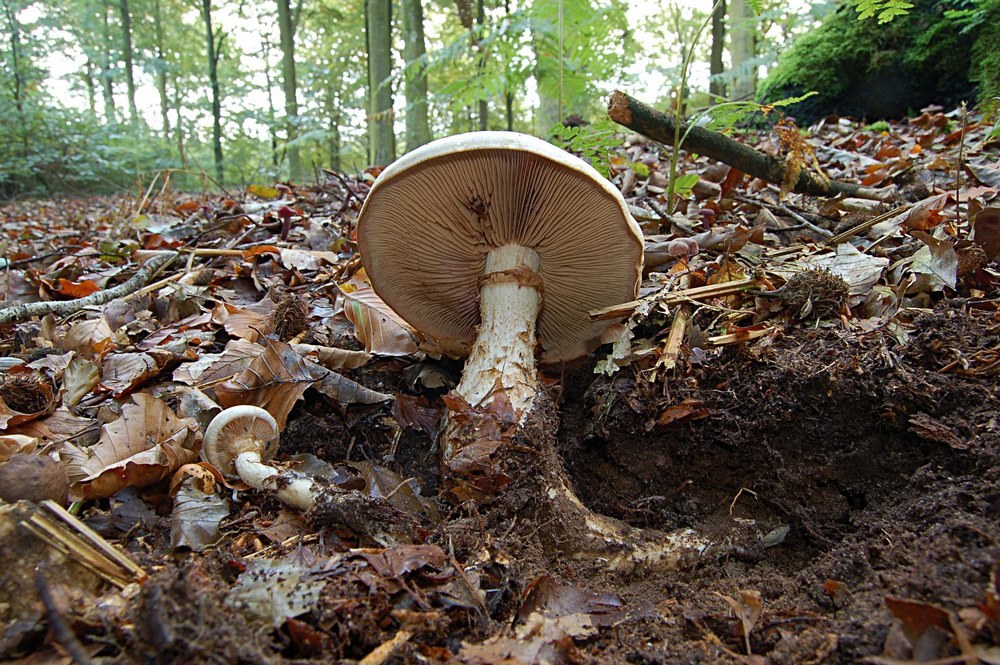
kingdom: Fungi
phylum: Basidiomycota
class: Agaricomycetes
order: Agaricales
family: Hymenogastraceae
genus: Hebeloma
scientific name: Hebeloma radicosum
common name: pælerods-tåreblad
